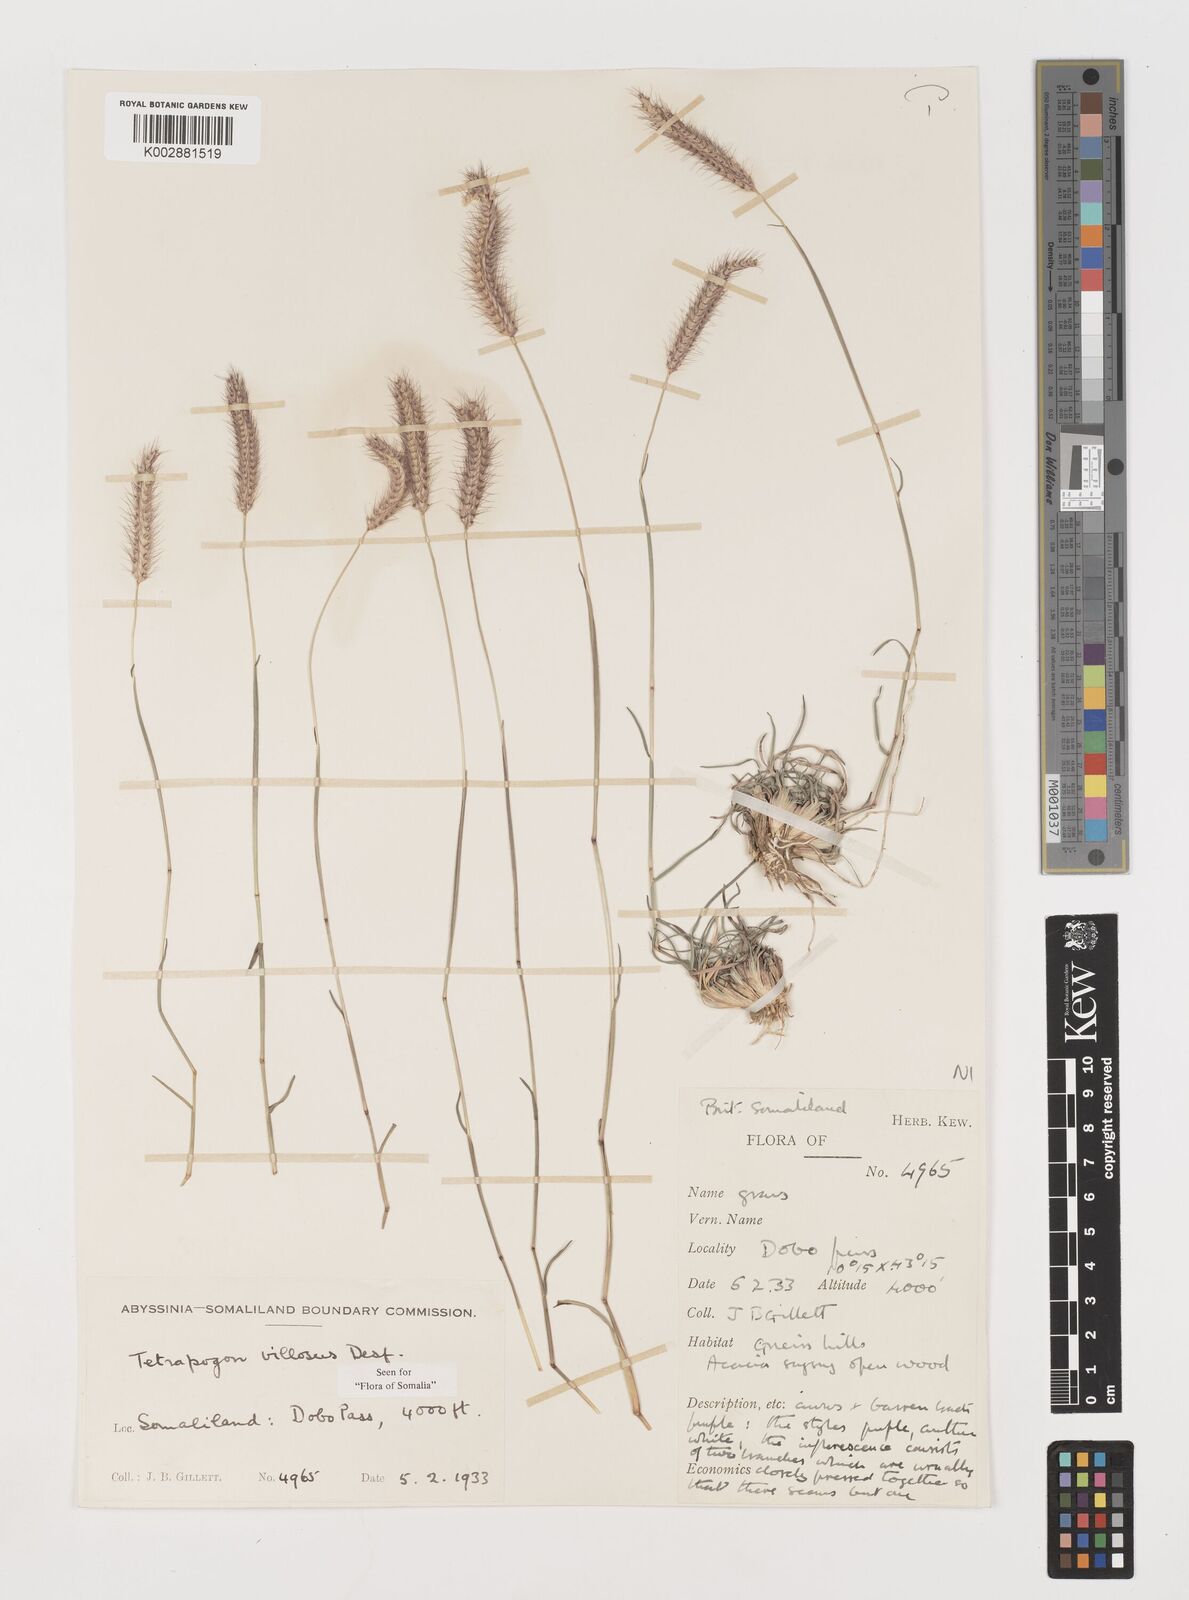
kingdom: Plantae
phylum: Tracheophyta
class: Liliopsida
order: Poales
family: Poaceae
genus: Tetrapogon
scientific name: Tetrapogon villosus
